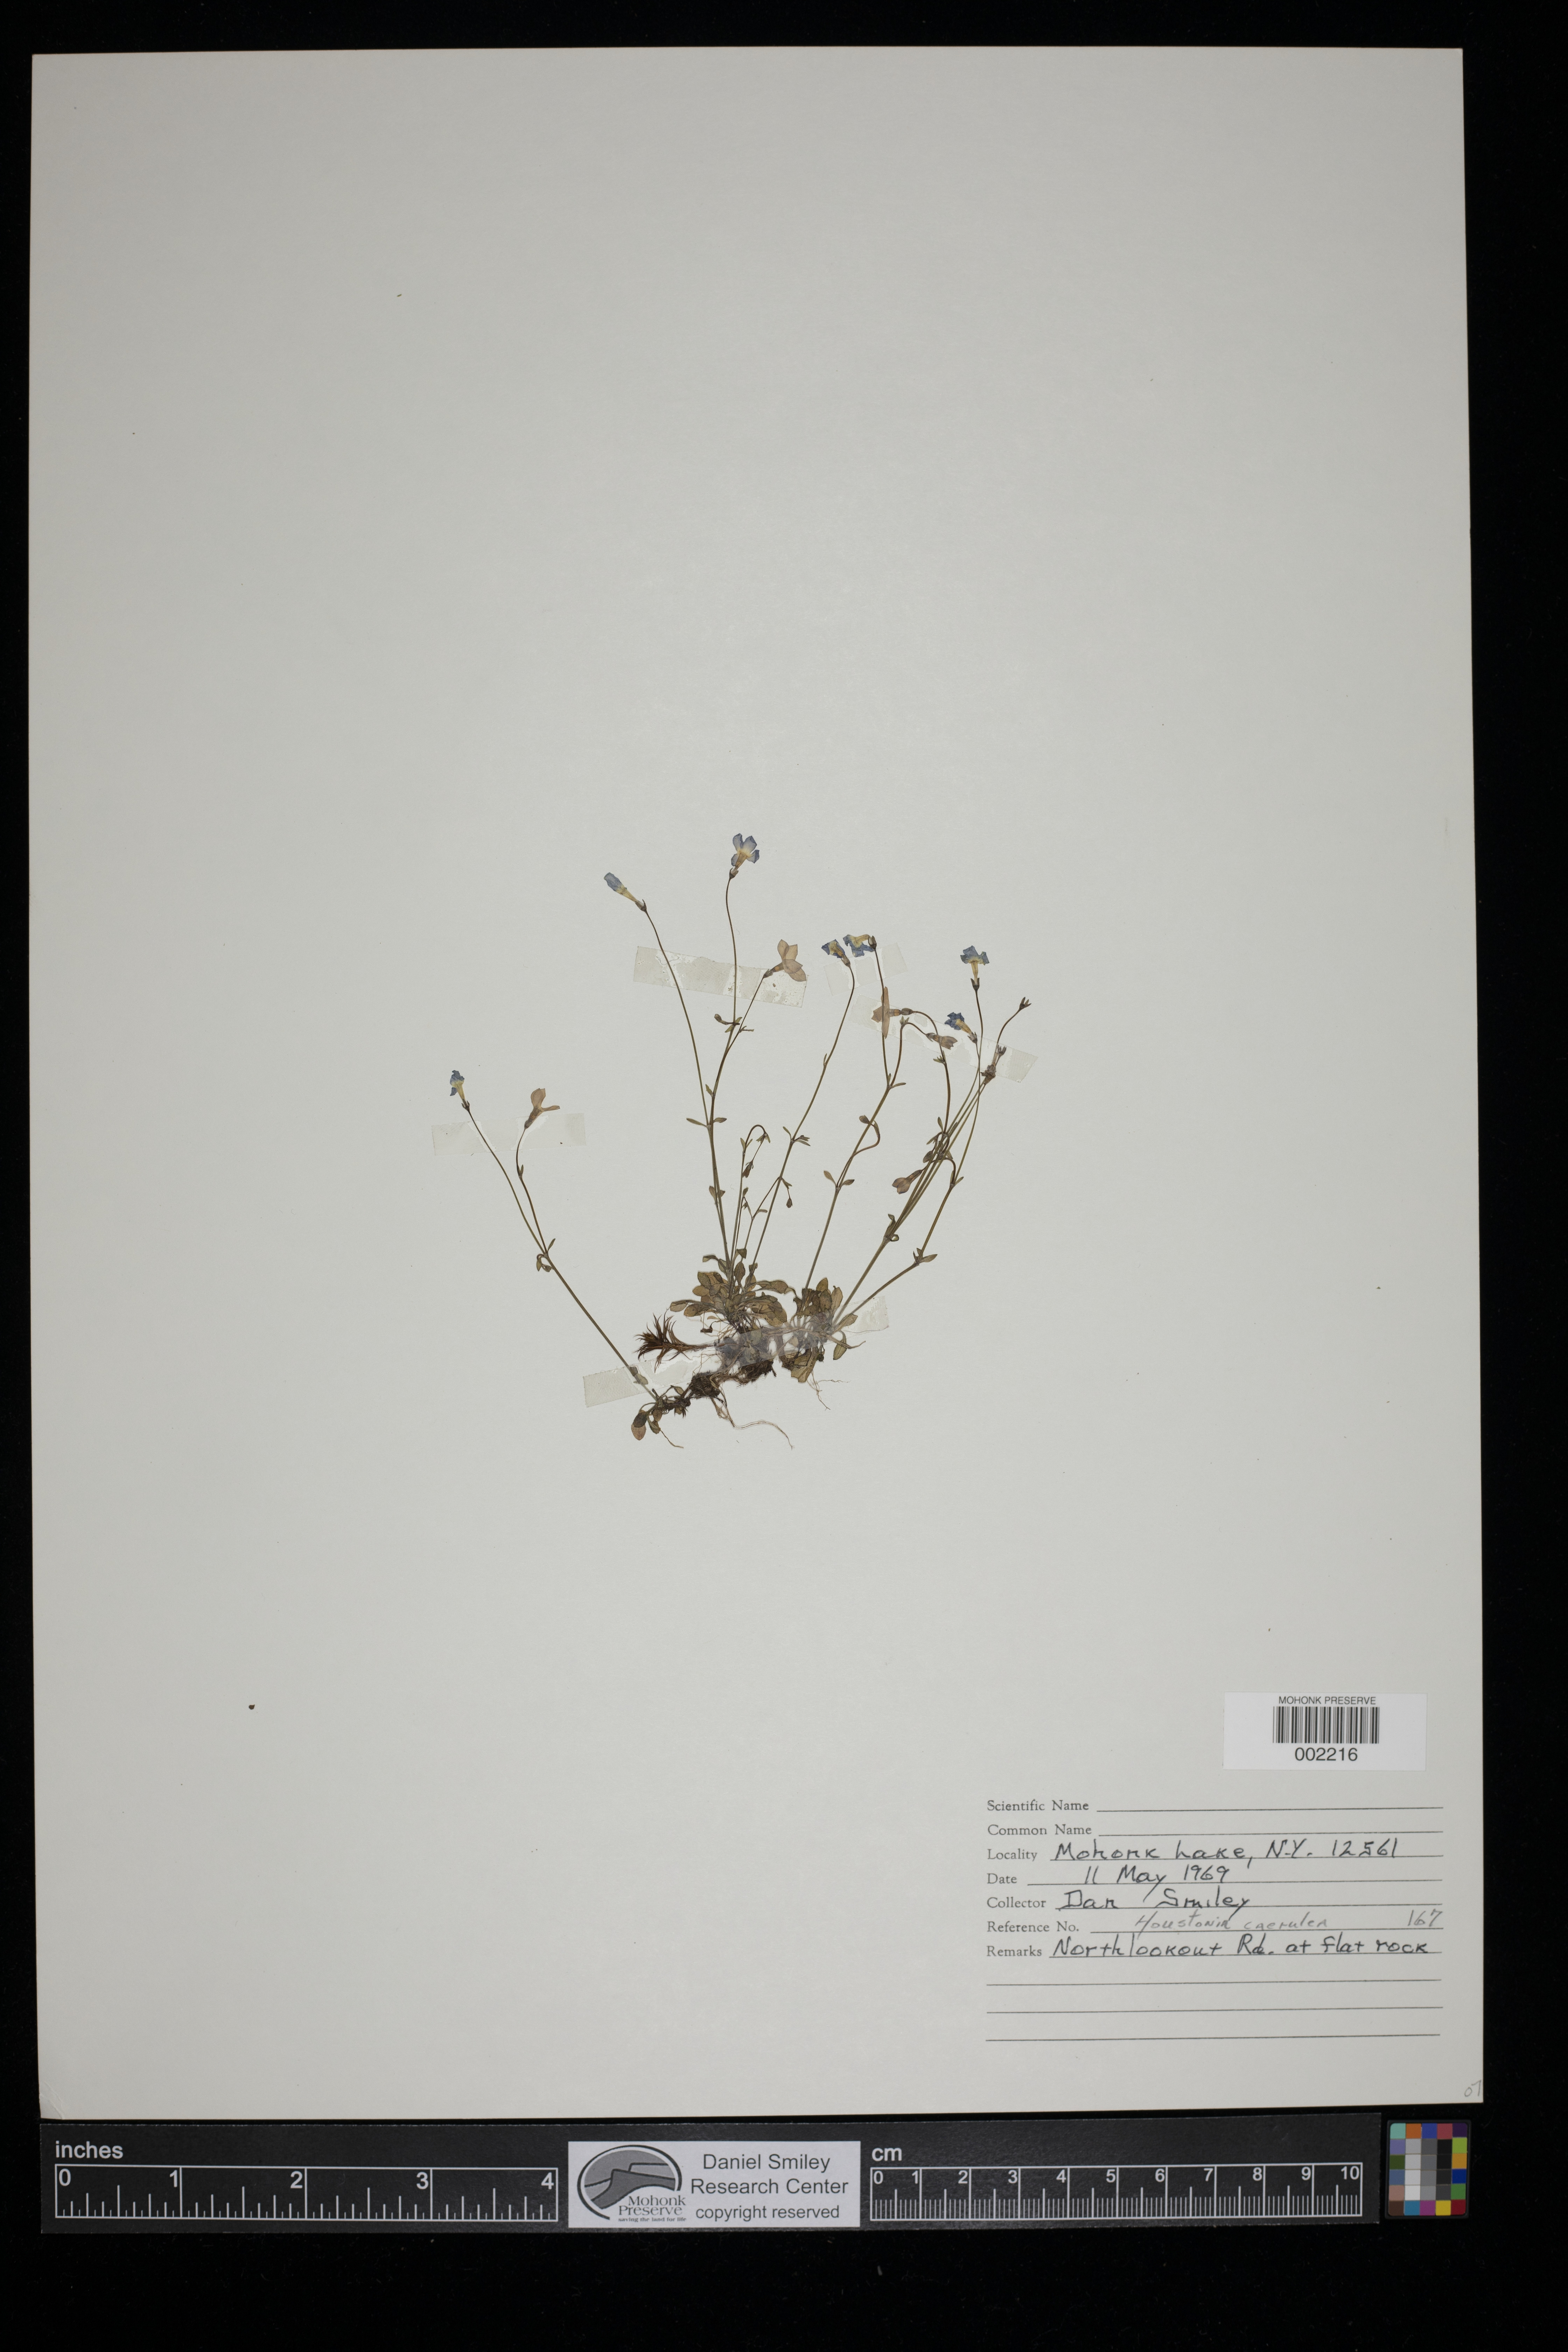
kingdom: Plantae
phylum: Tracheophyta
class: Magnoliopsida
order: Gentianales
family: Rubiaceae
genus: Houstonia
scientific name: Houstonia caerulea
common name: Bluets
